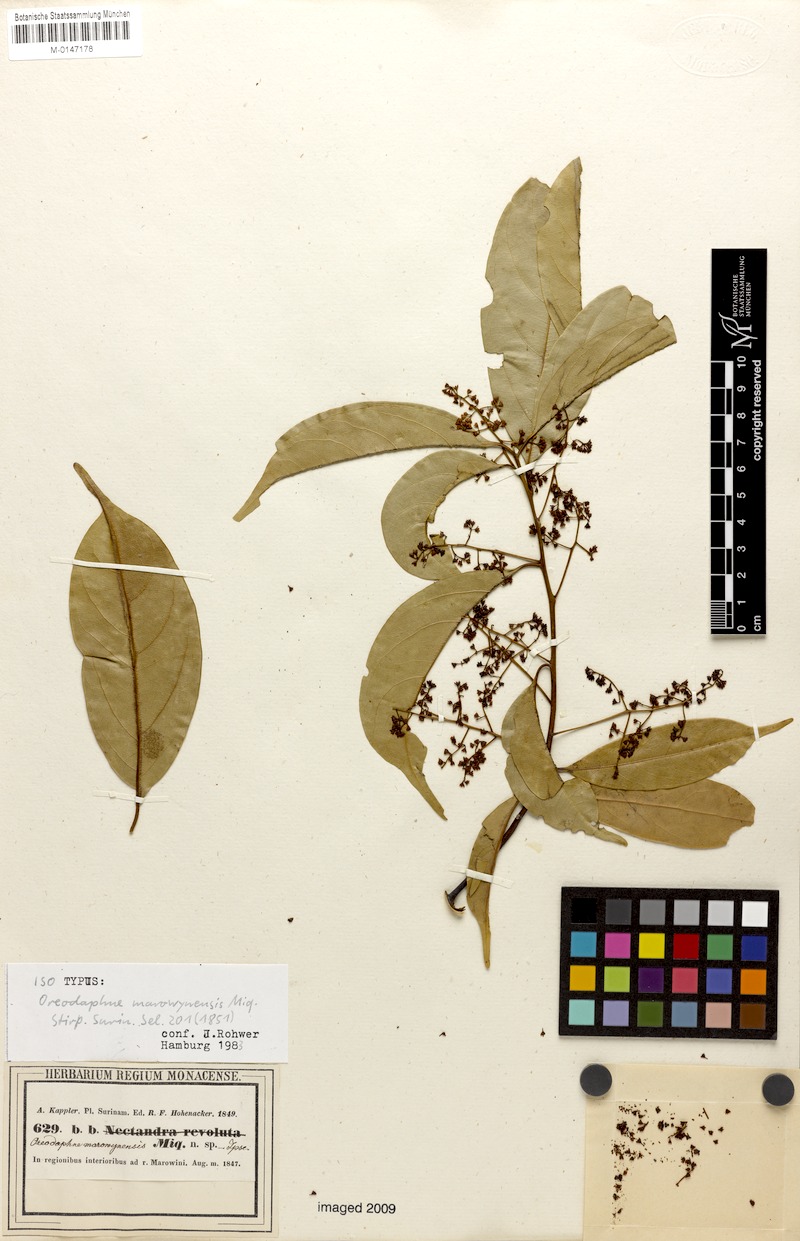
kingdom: Plantae
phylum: Tracheophyta
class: Magnoliopsida
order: Laurales
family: Lauraceae
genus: Ocotea
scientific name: Ocotea leptobotra
